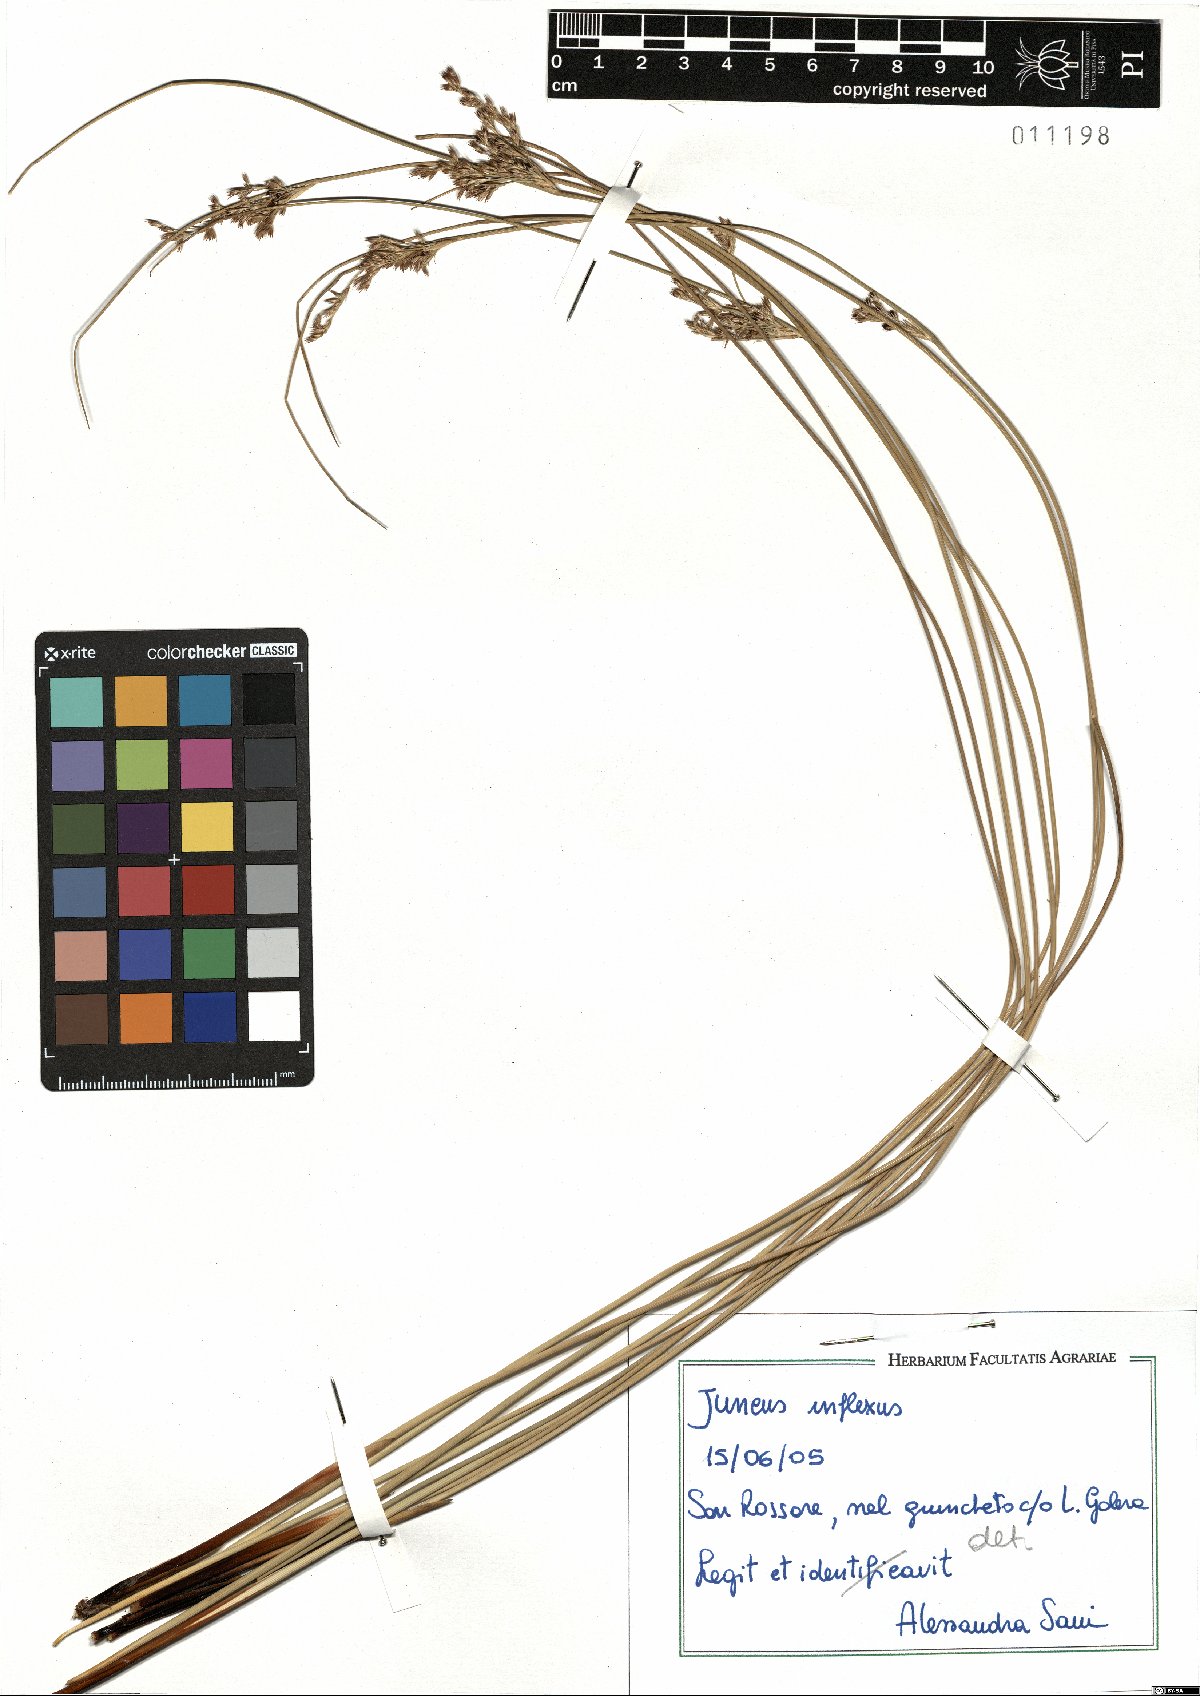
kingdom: Plantae
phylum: Tracheophyta
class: Liliopsida
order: Poales
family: Juncaceae
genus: Juncus
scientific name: Juncus inflexus
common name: Hard rush
